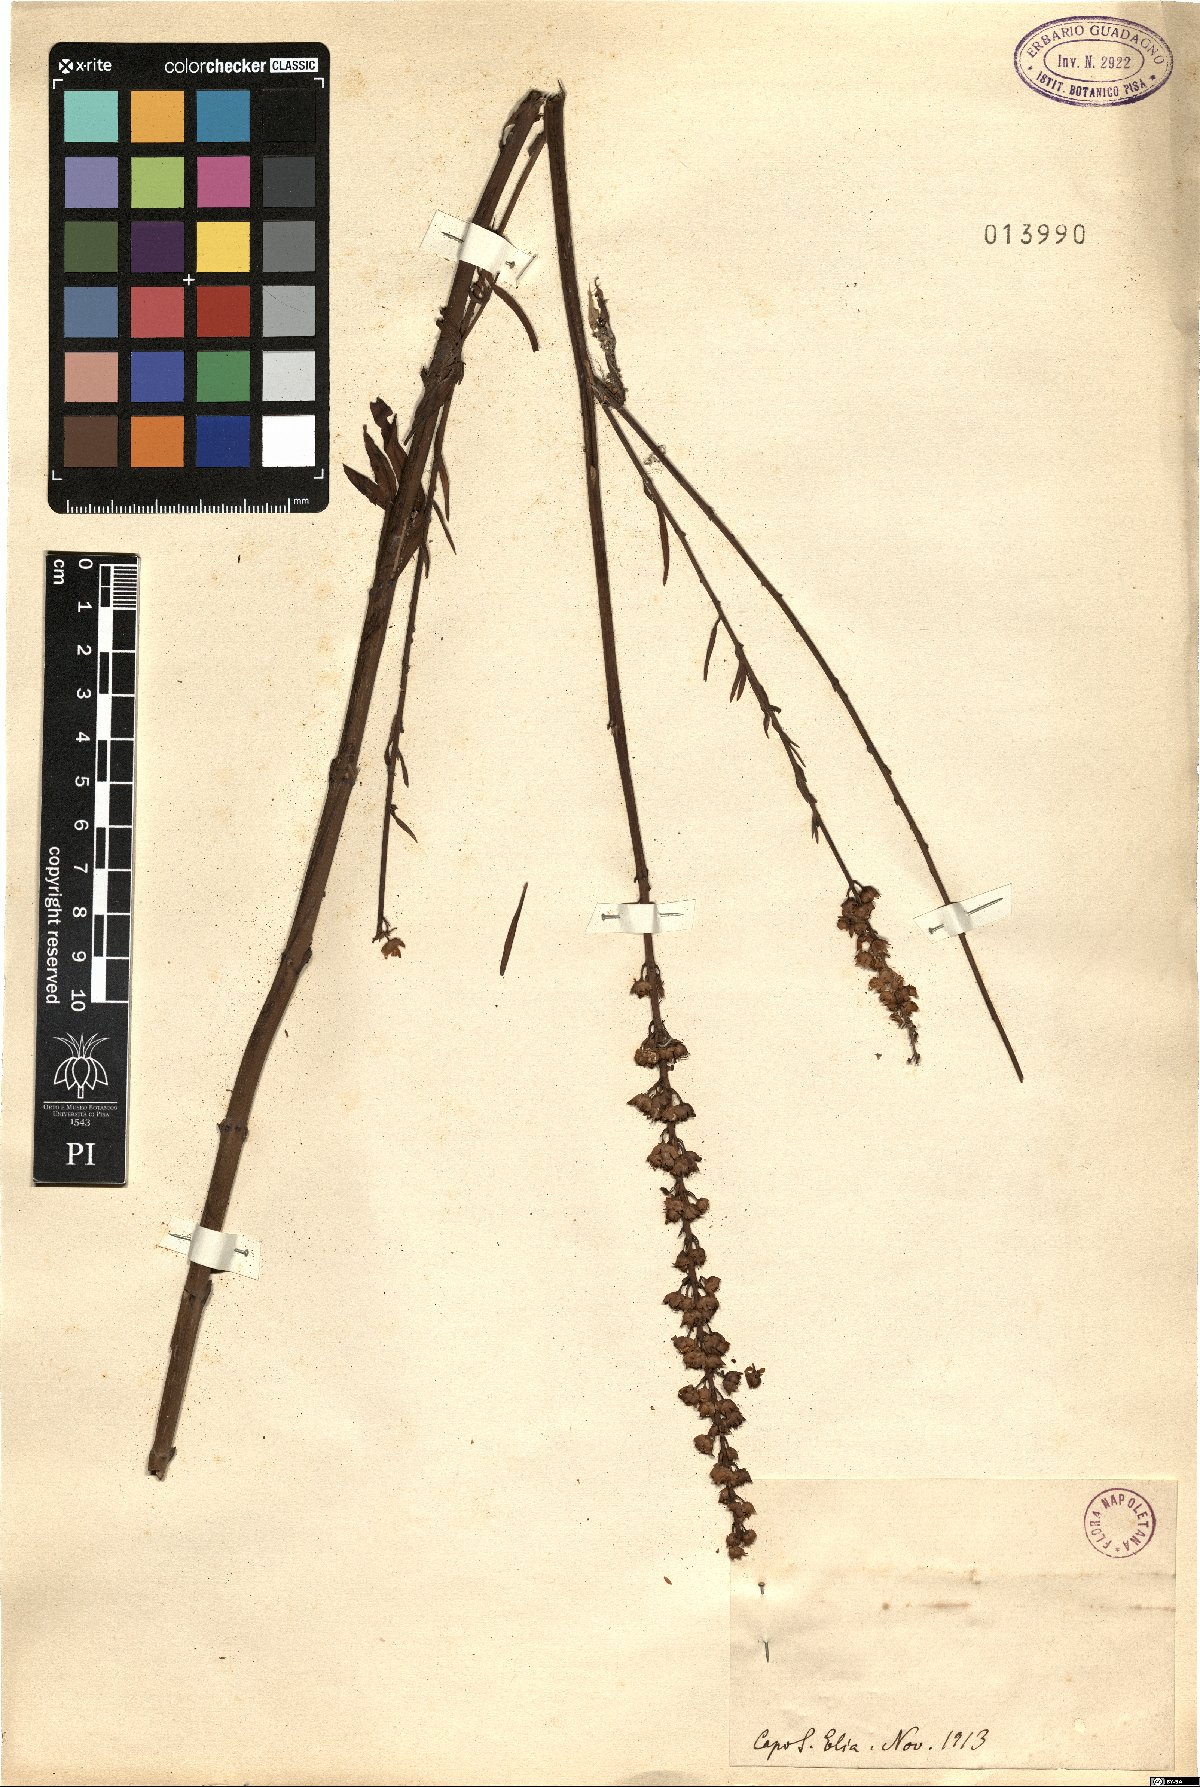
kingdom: Plantae
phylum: Tracheophyta
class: Magnoliopsida
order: Lamiales
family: Plantaginaceae
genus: Linaria
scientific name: Linaria
